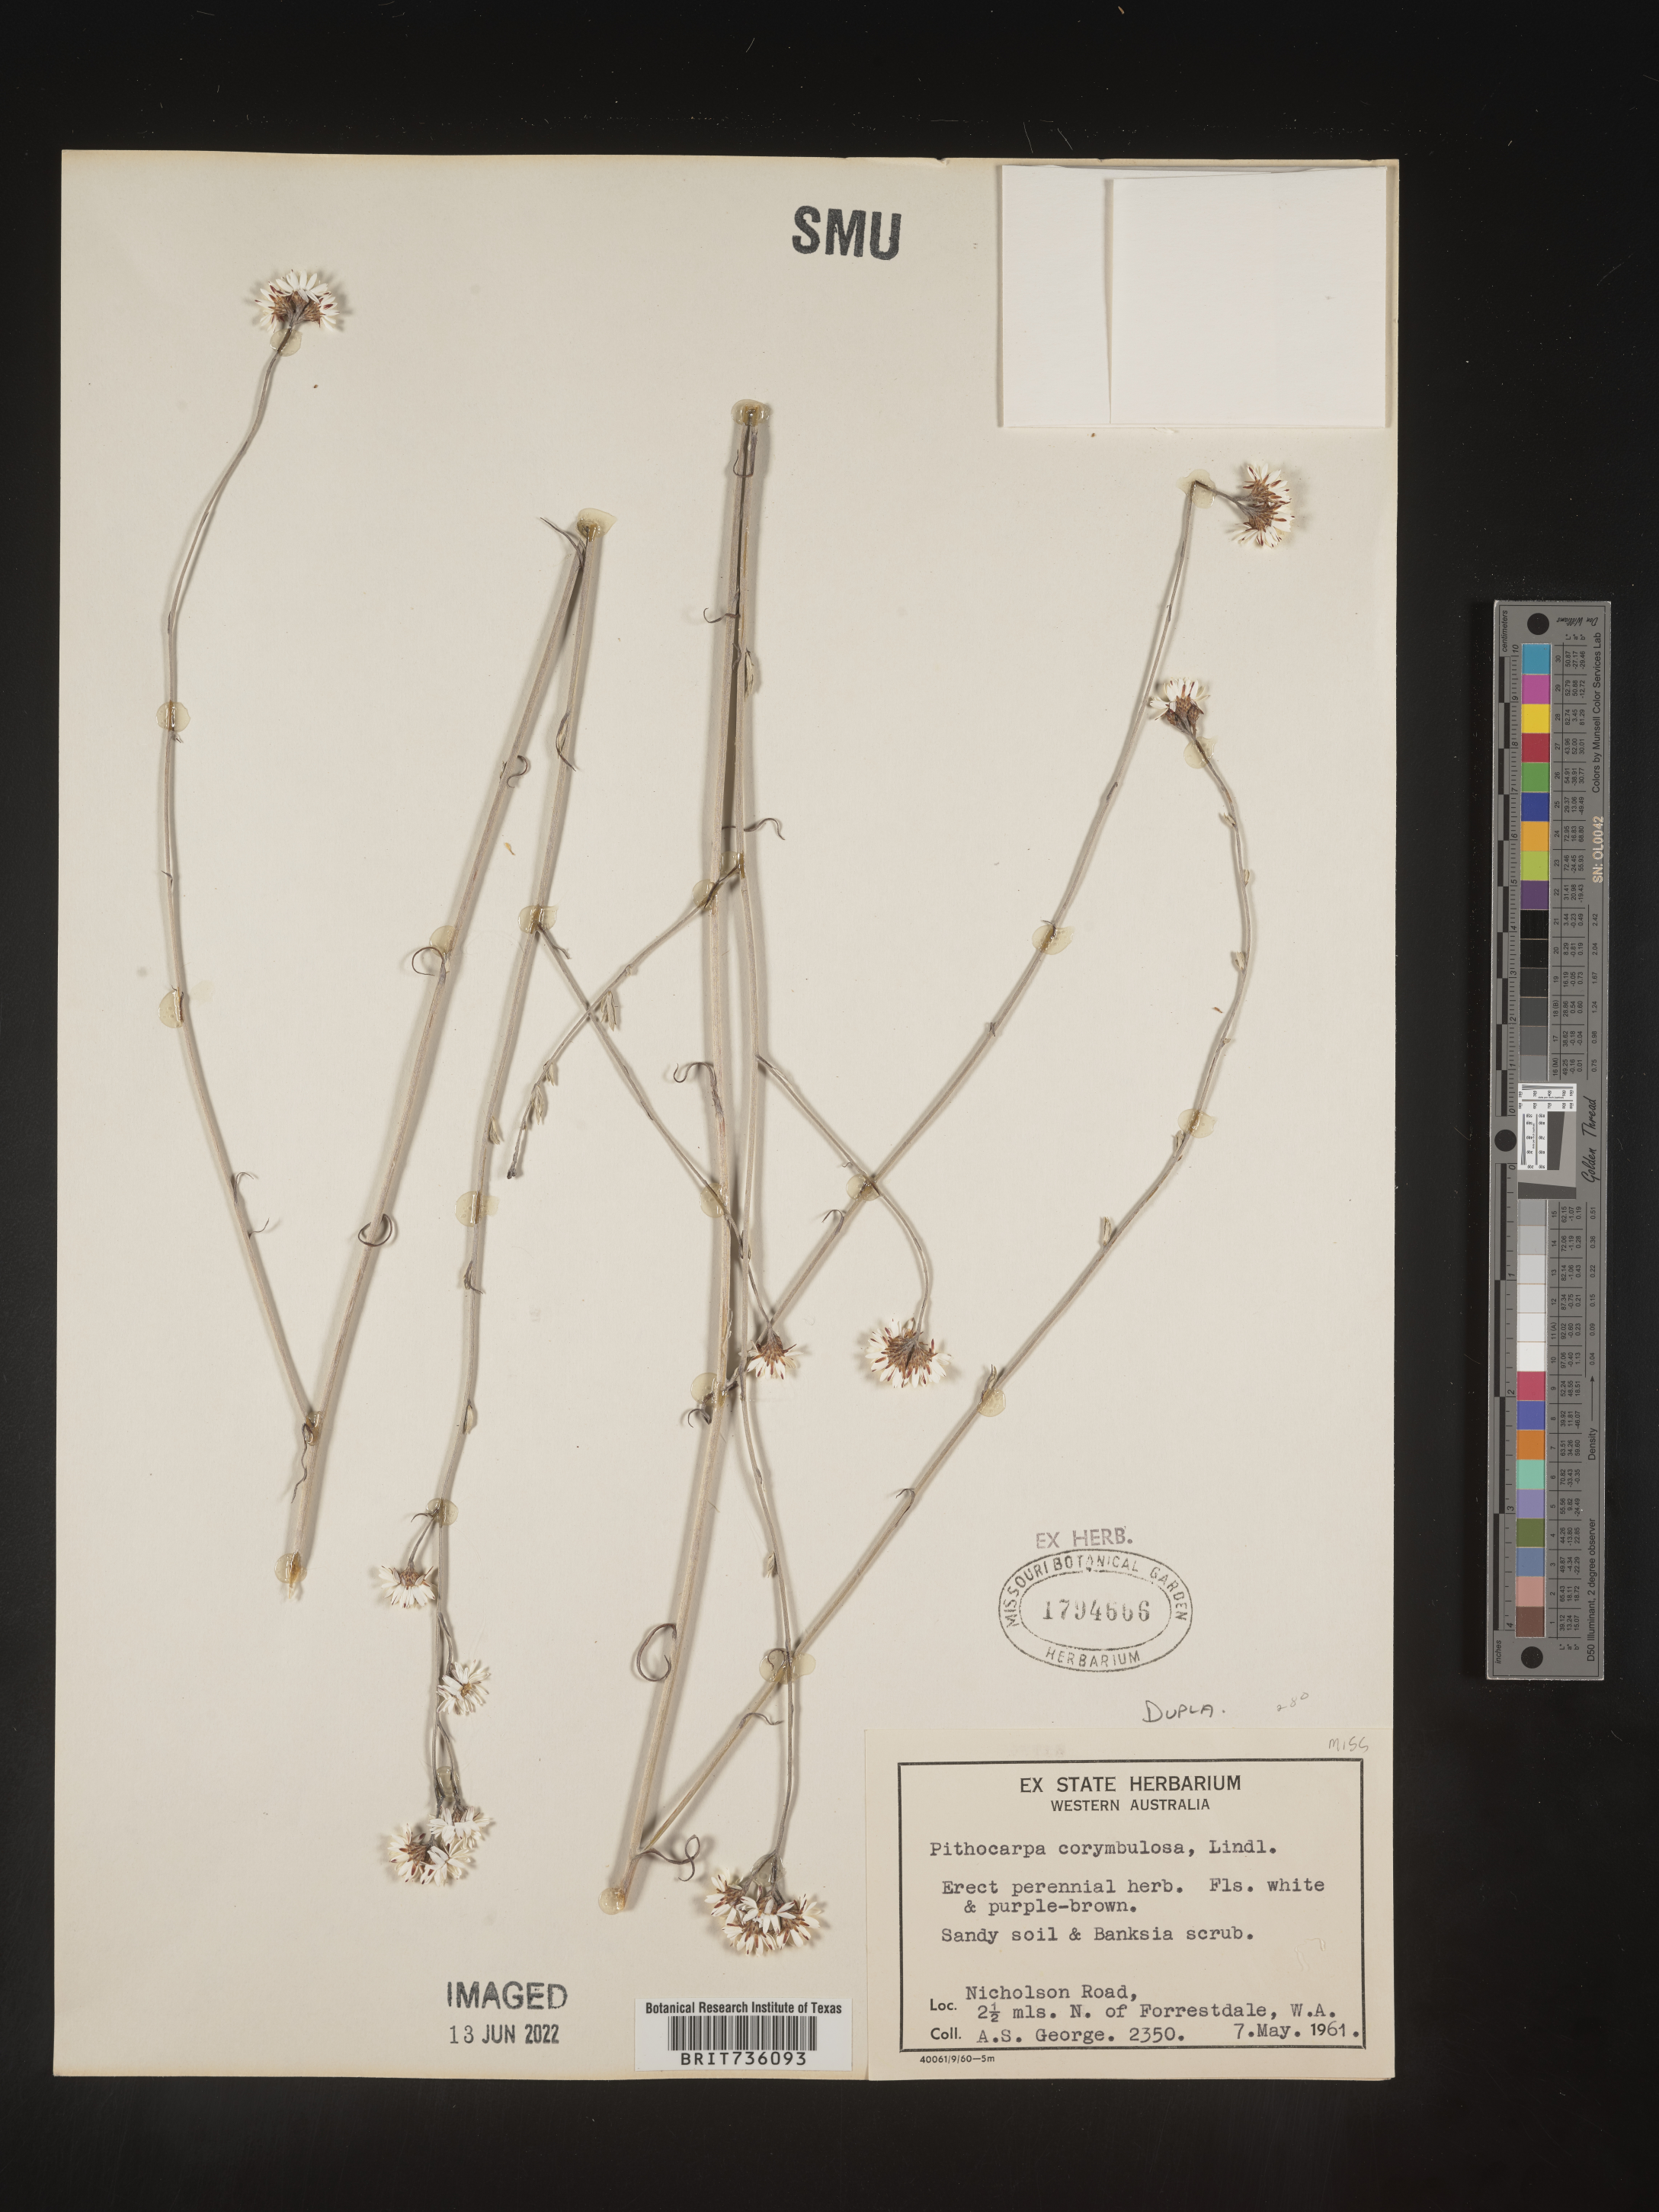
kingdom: Plantae
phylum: Tracheophyta
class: Magnoliopsida
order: Asterales
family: Asteraceae
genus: Pithocarpa
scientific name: Pithocarpa
